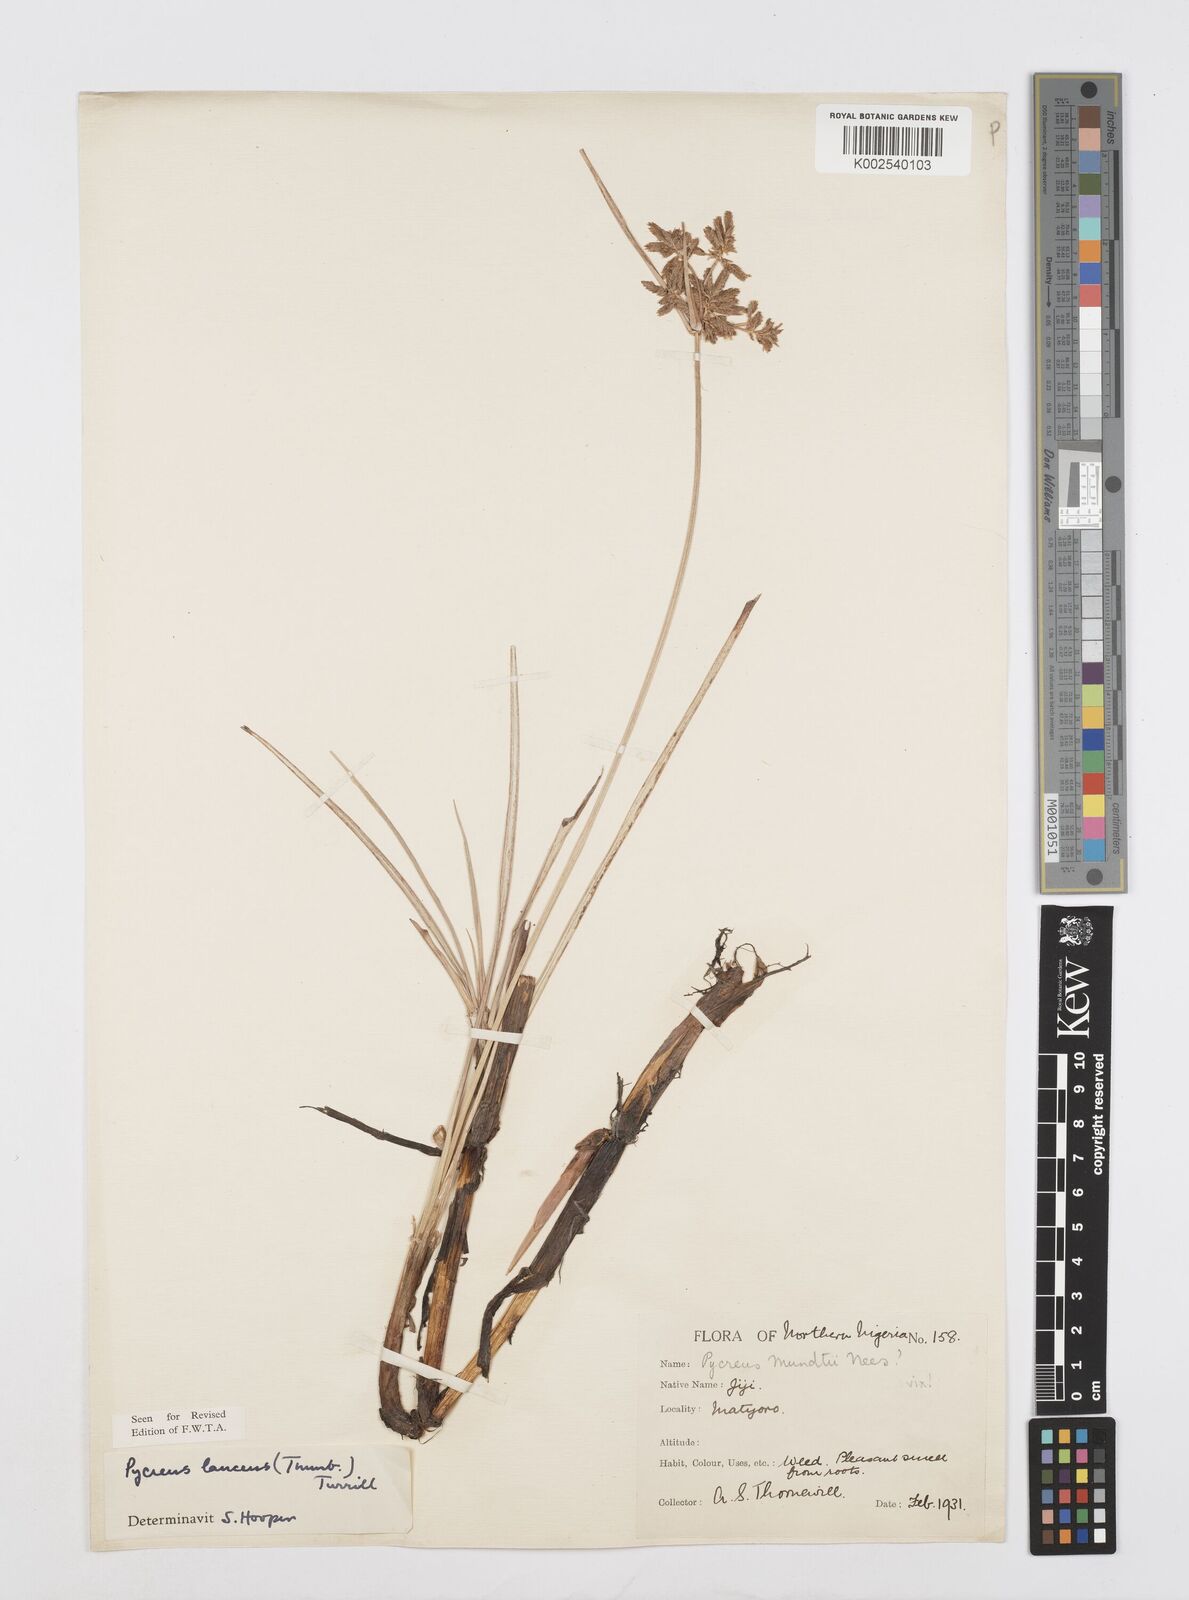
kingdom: Plantae
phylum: Tracheophyta
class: Liliopsida
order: Poales
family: Cyperaceae
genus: Cyperus
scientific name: Cyperus nitidus
